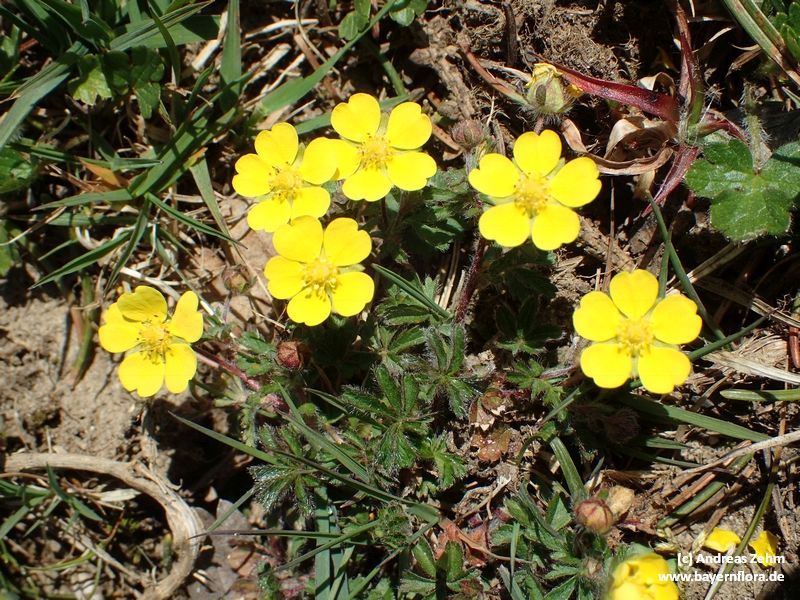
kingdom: Plantae
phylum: Tracheophyta
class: Magnoliopsida
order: Rosales
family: Rosaceae
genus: Potentilla
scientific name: Potentilla heptaphylla
